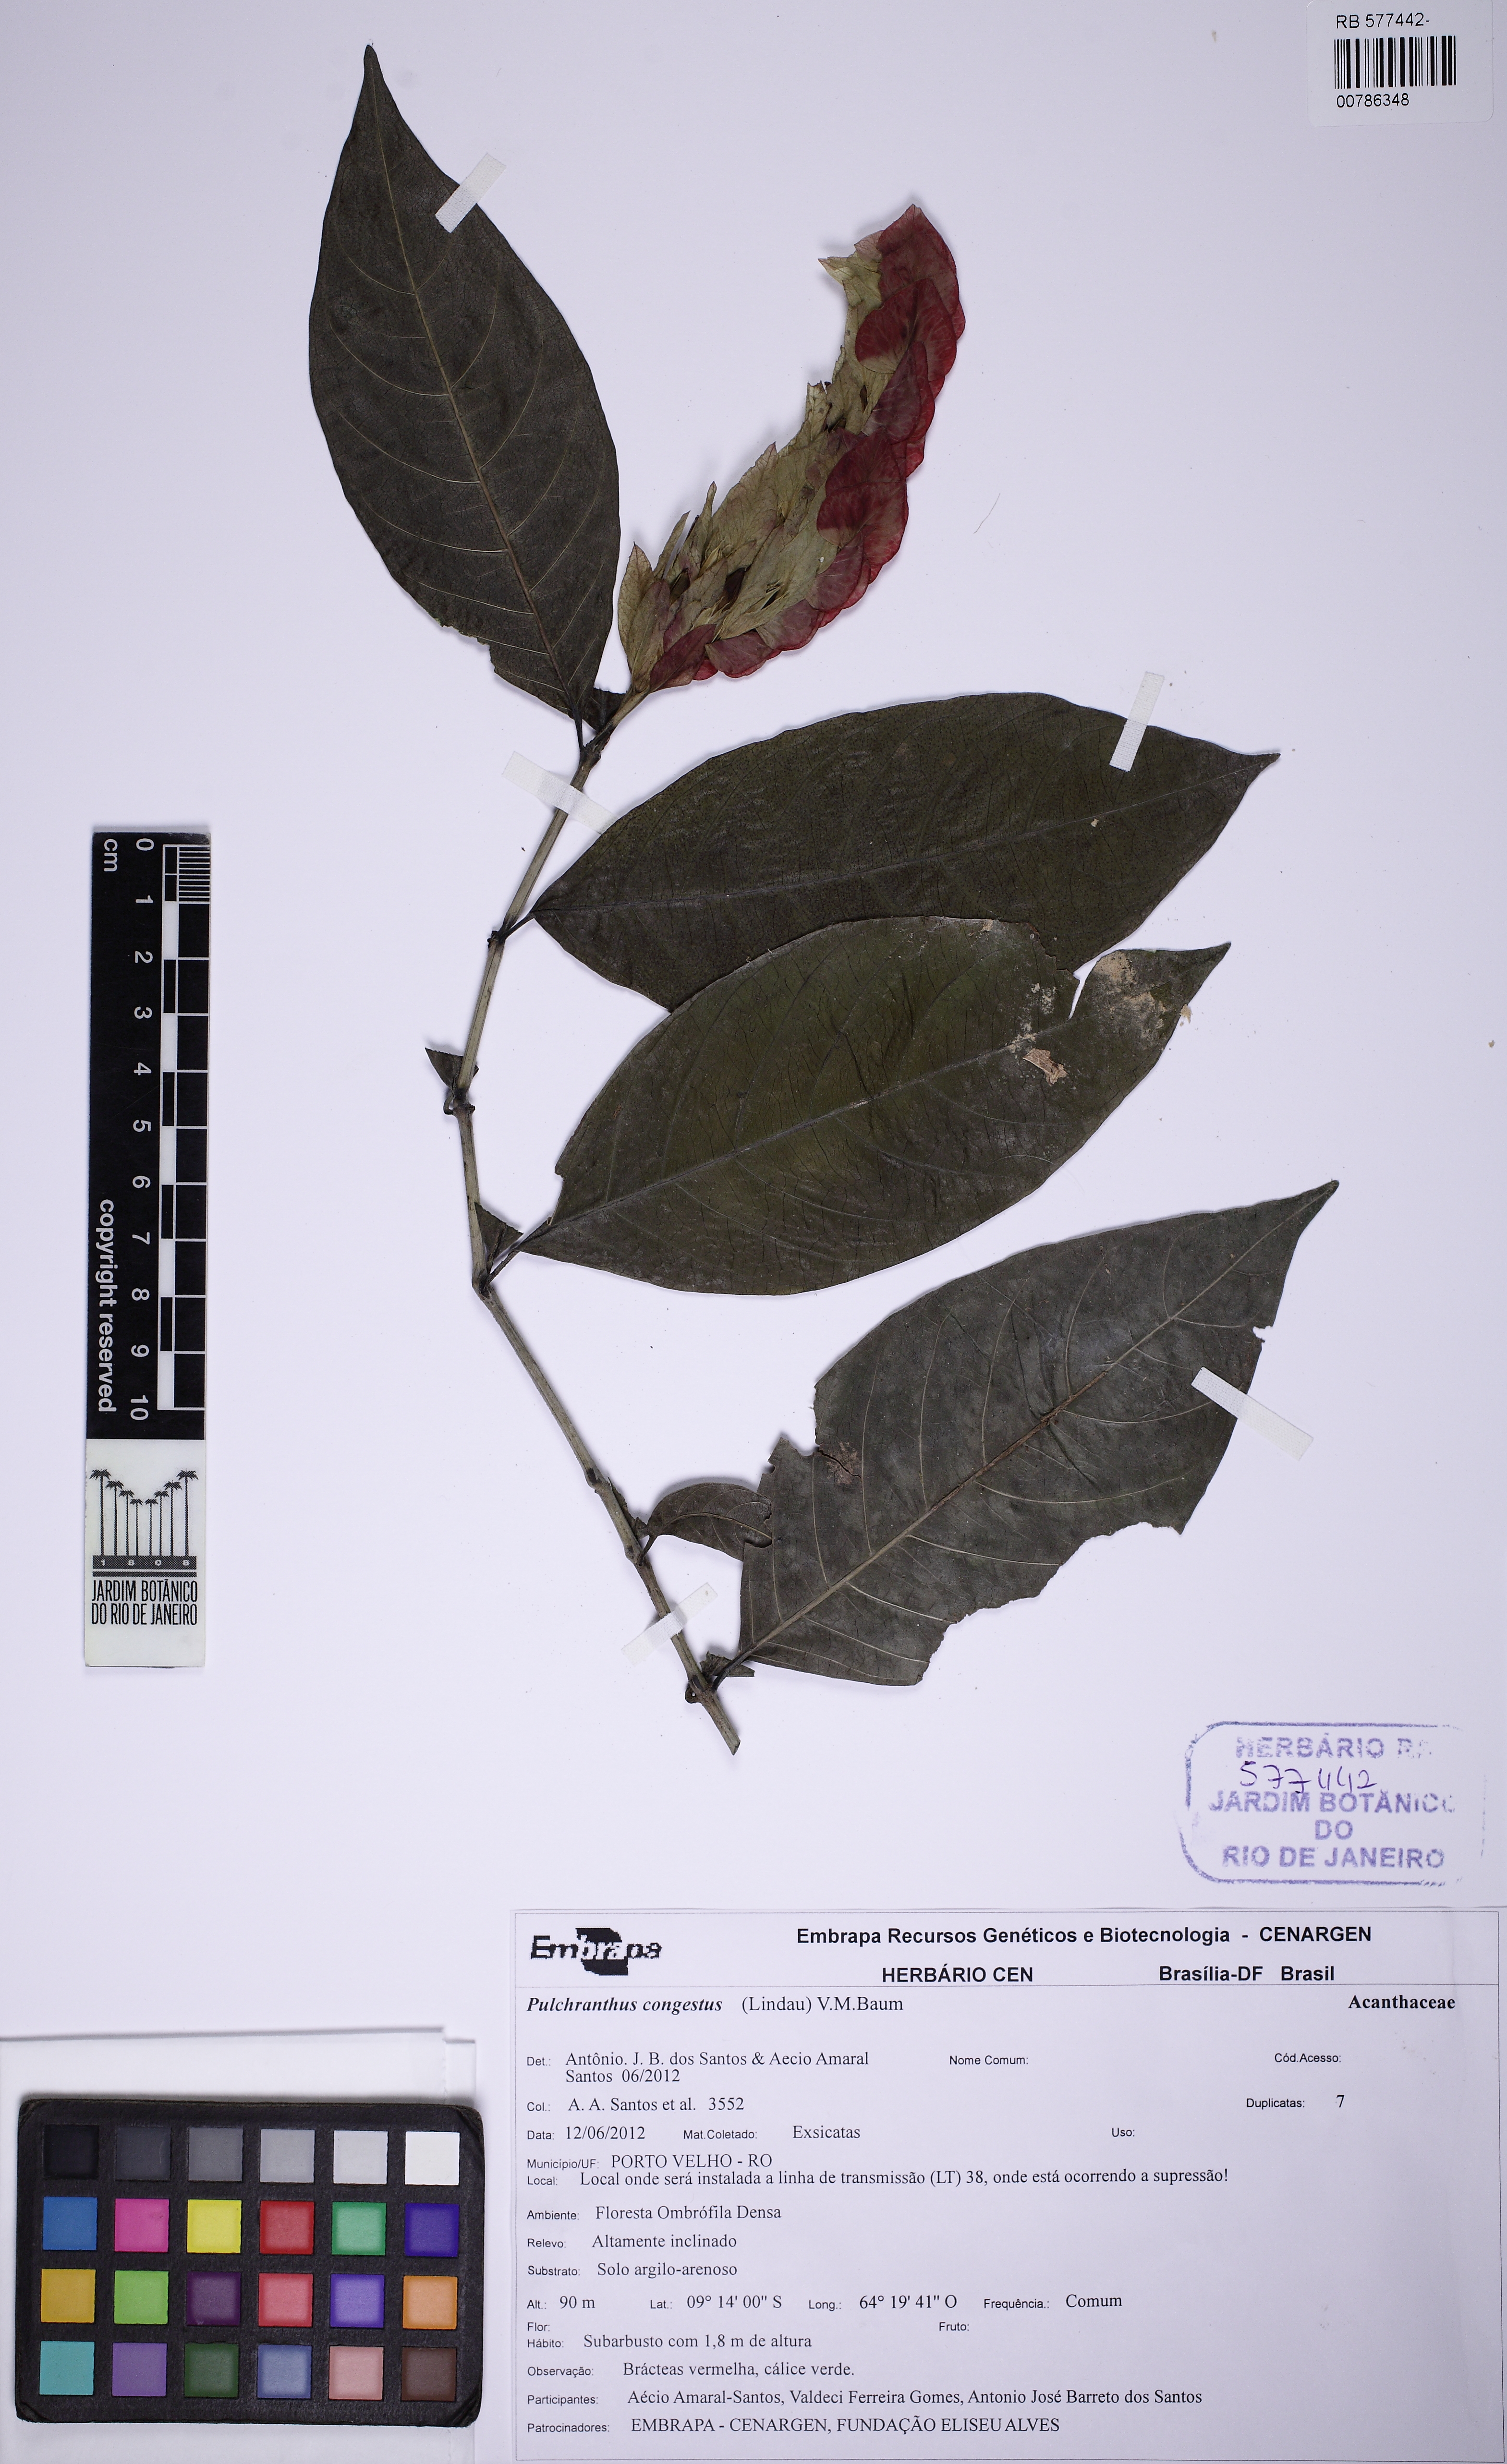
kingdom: Plantae
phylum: Tracheophyta
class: Magnoliopsida
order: Lamiales
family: Acanthaceae
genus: Pulchranthus
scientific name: Pulchranthus congestus
